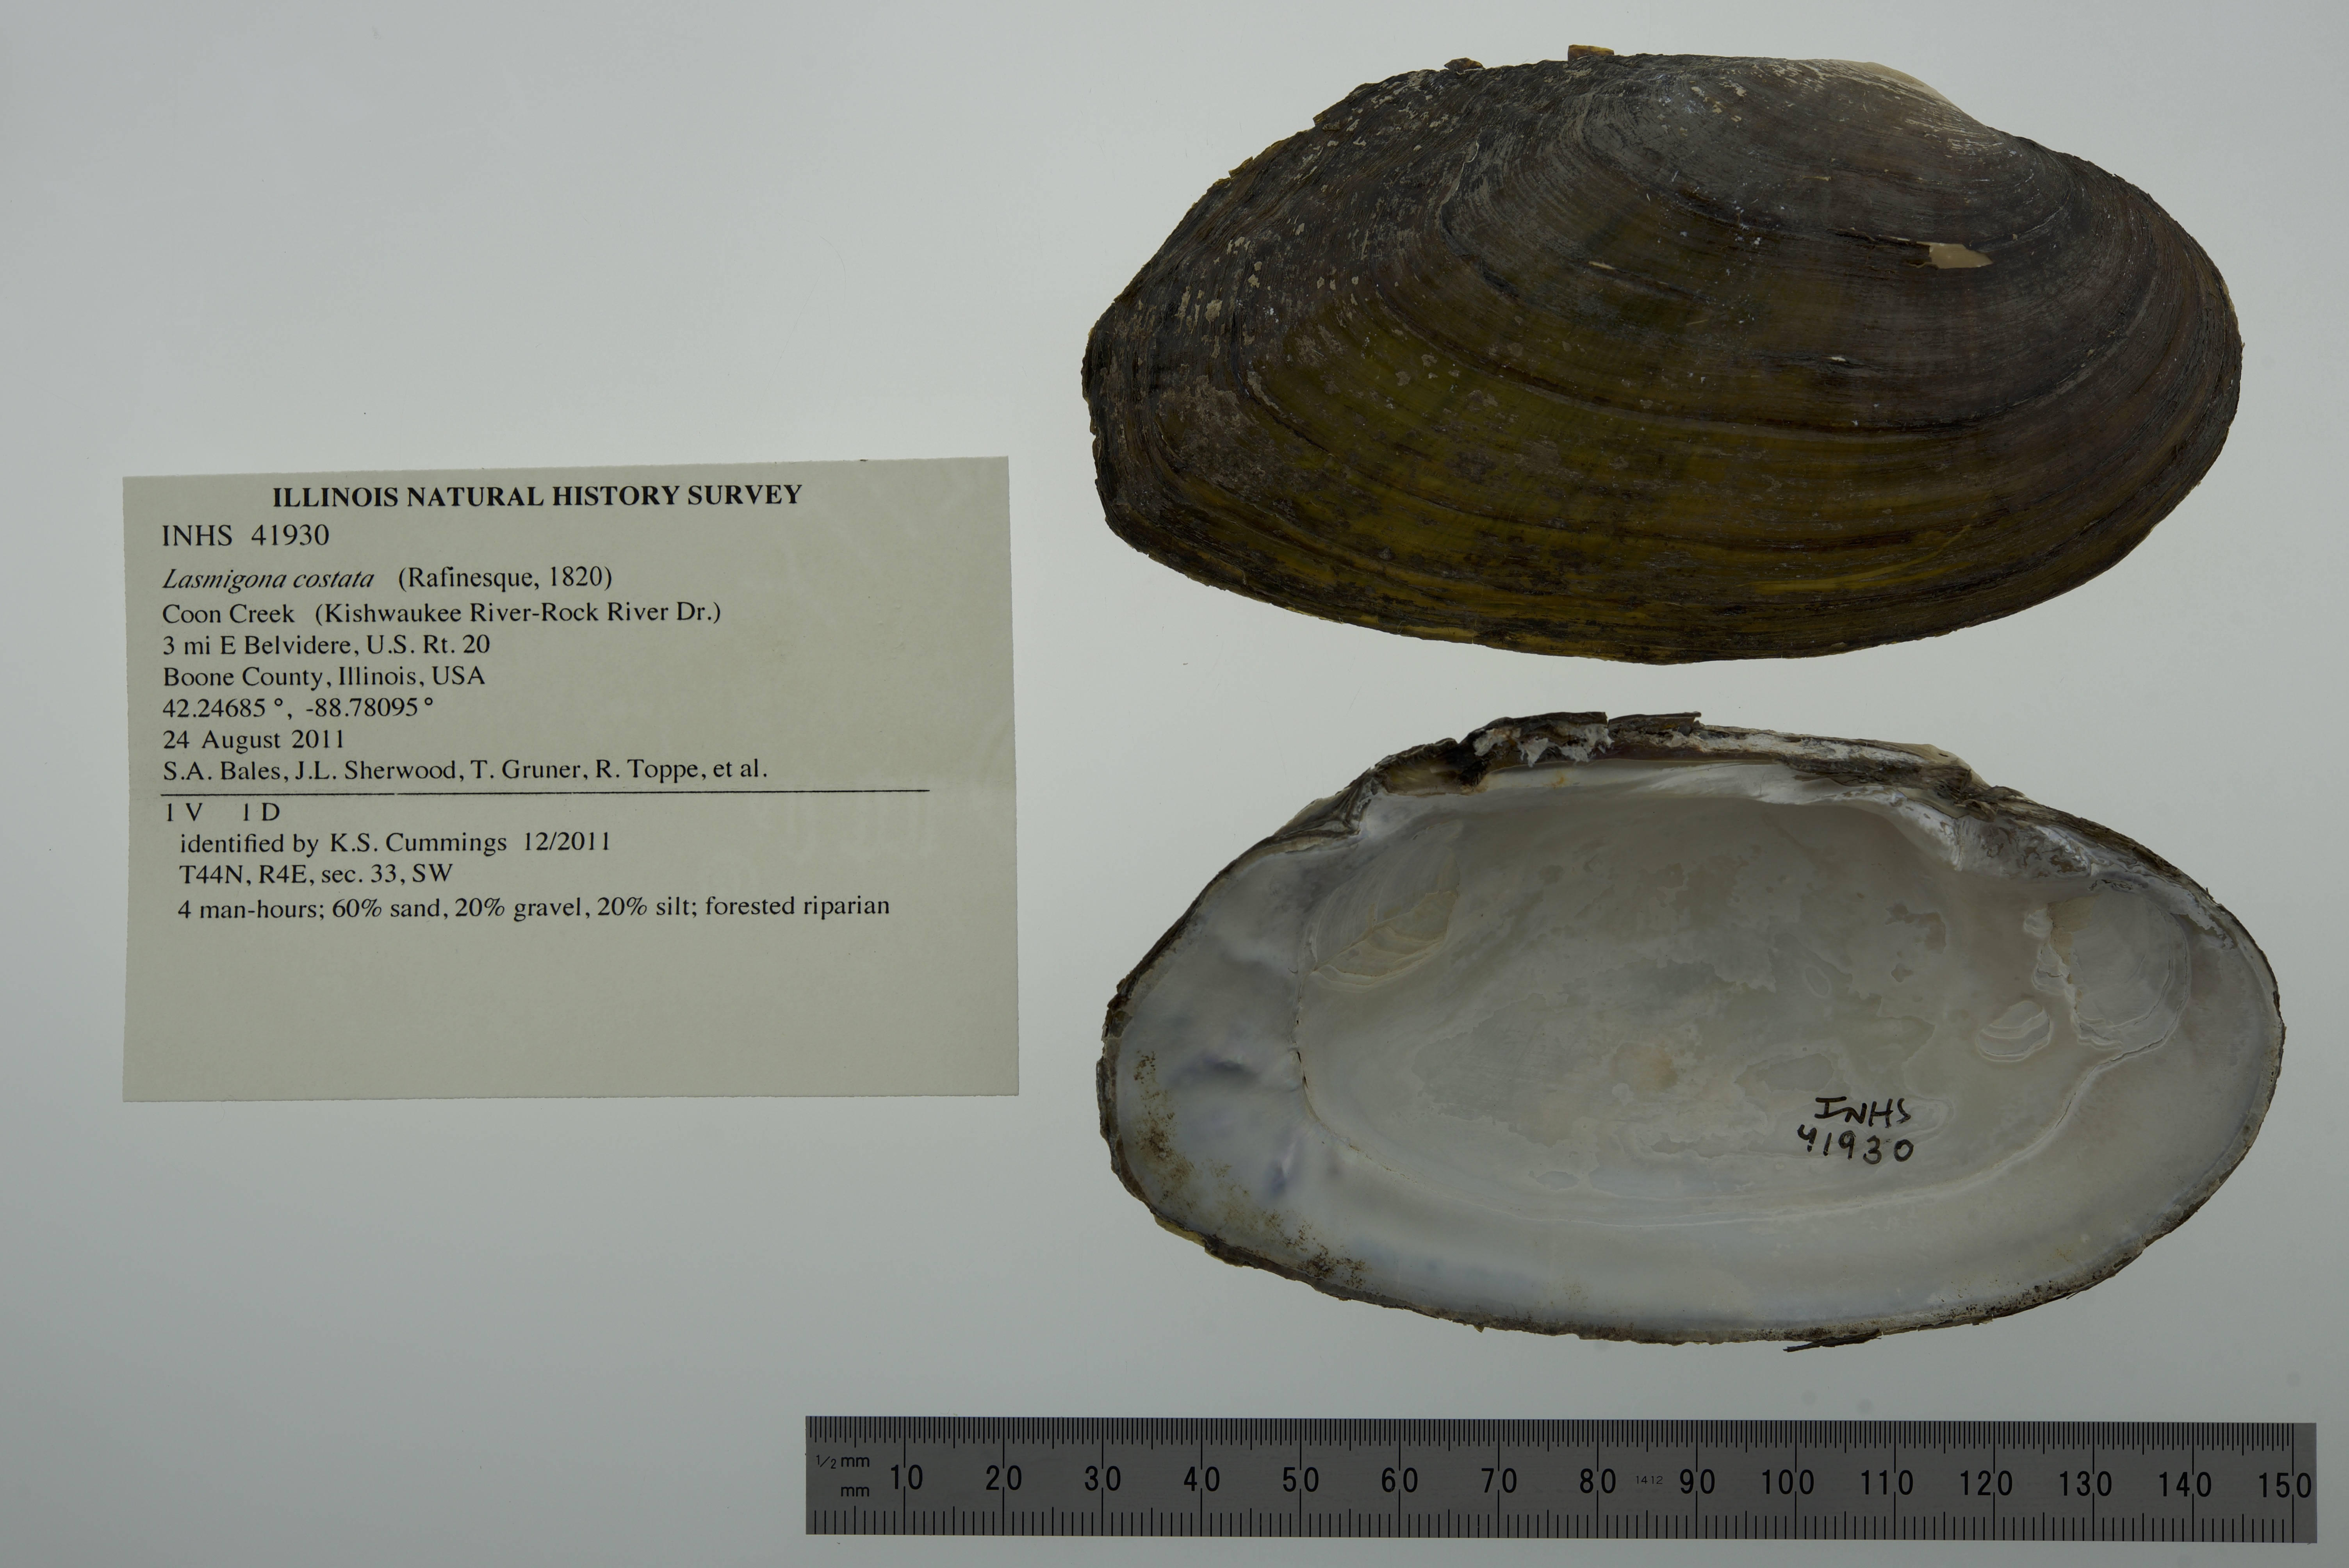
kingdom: Animalia
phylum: Mollusca
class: Bivalvia
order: Unionida
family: Unionidae
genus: Lasmigona
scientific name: Lasmigona costata
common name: Flutedshell
